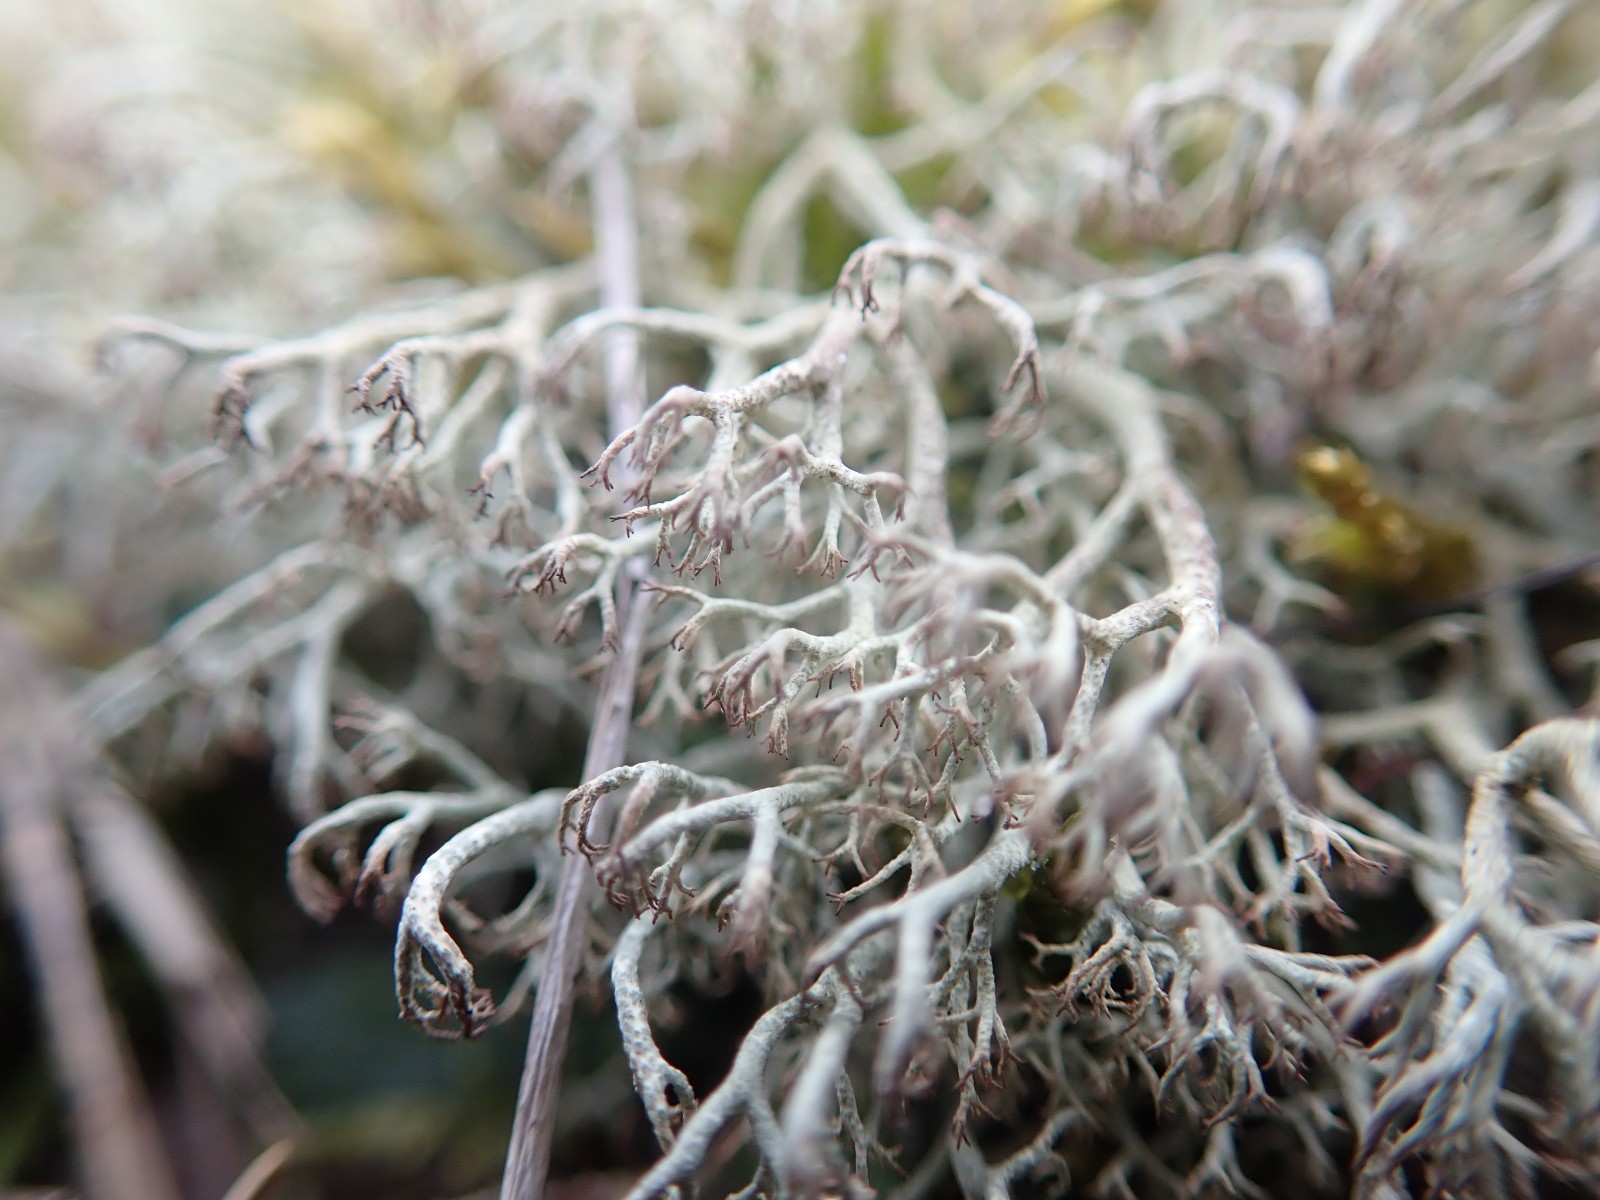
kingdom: Fungi
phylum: Ascomycota
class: Lecanoromycetes
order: Lecanorales
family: Cladoniaceae
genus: Cladonia
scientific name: Cladonia ciliata
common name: spinkel rensdyrlav
